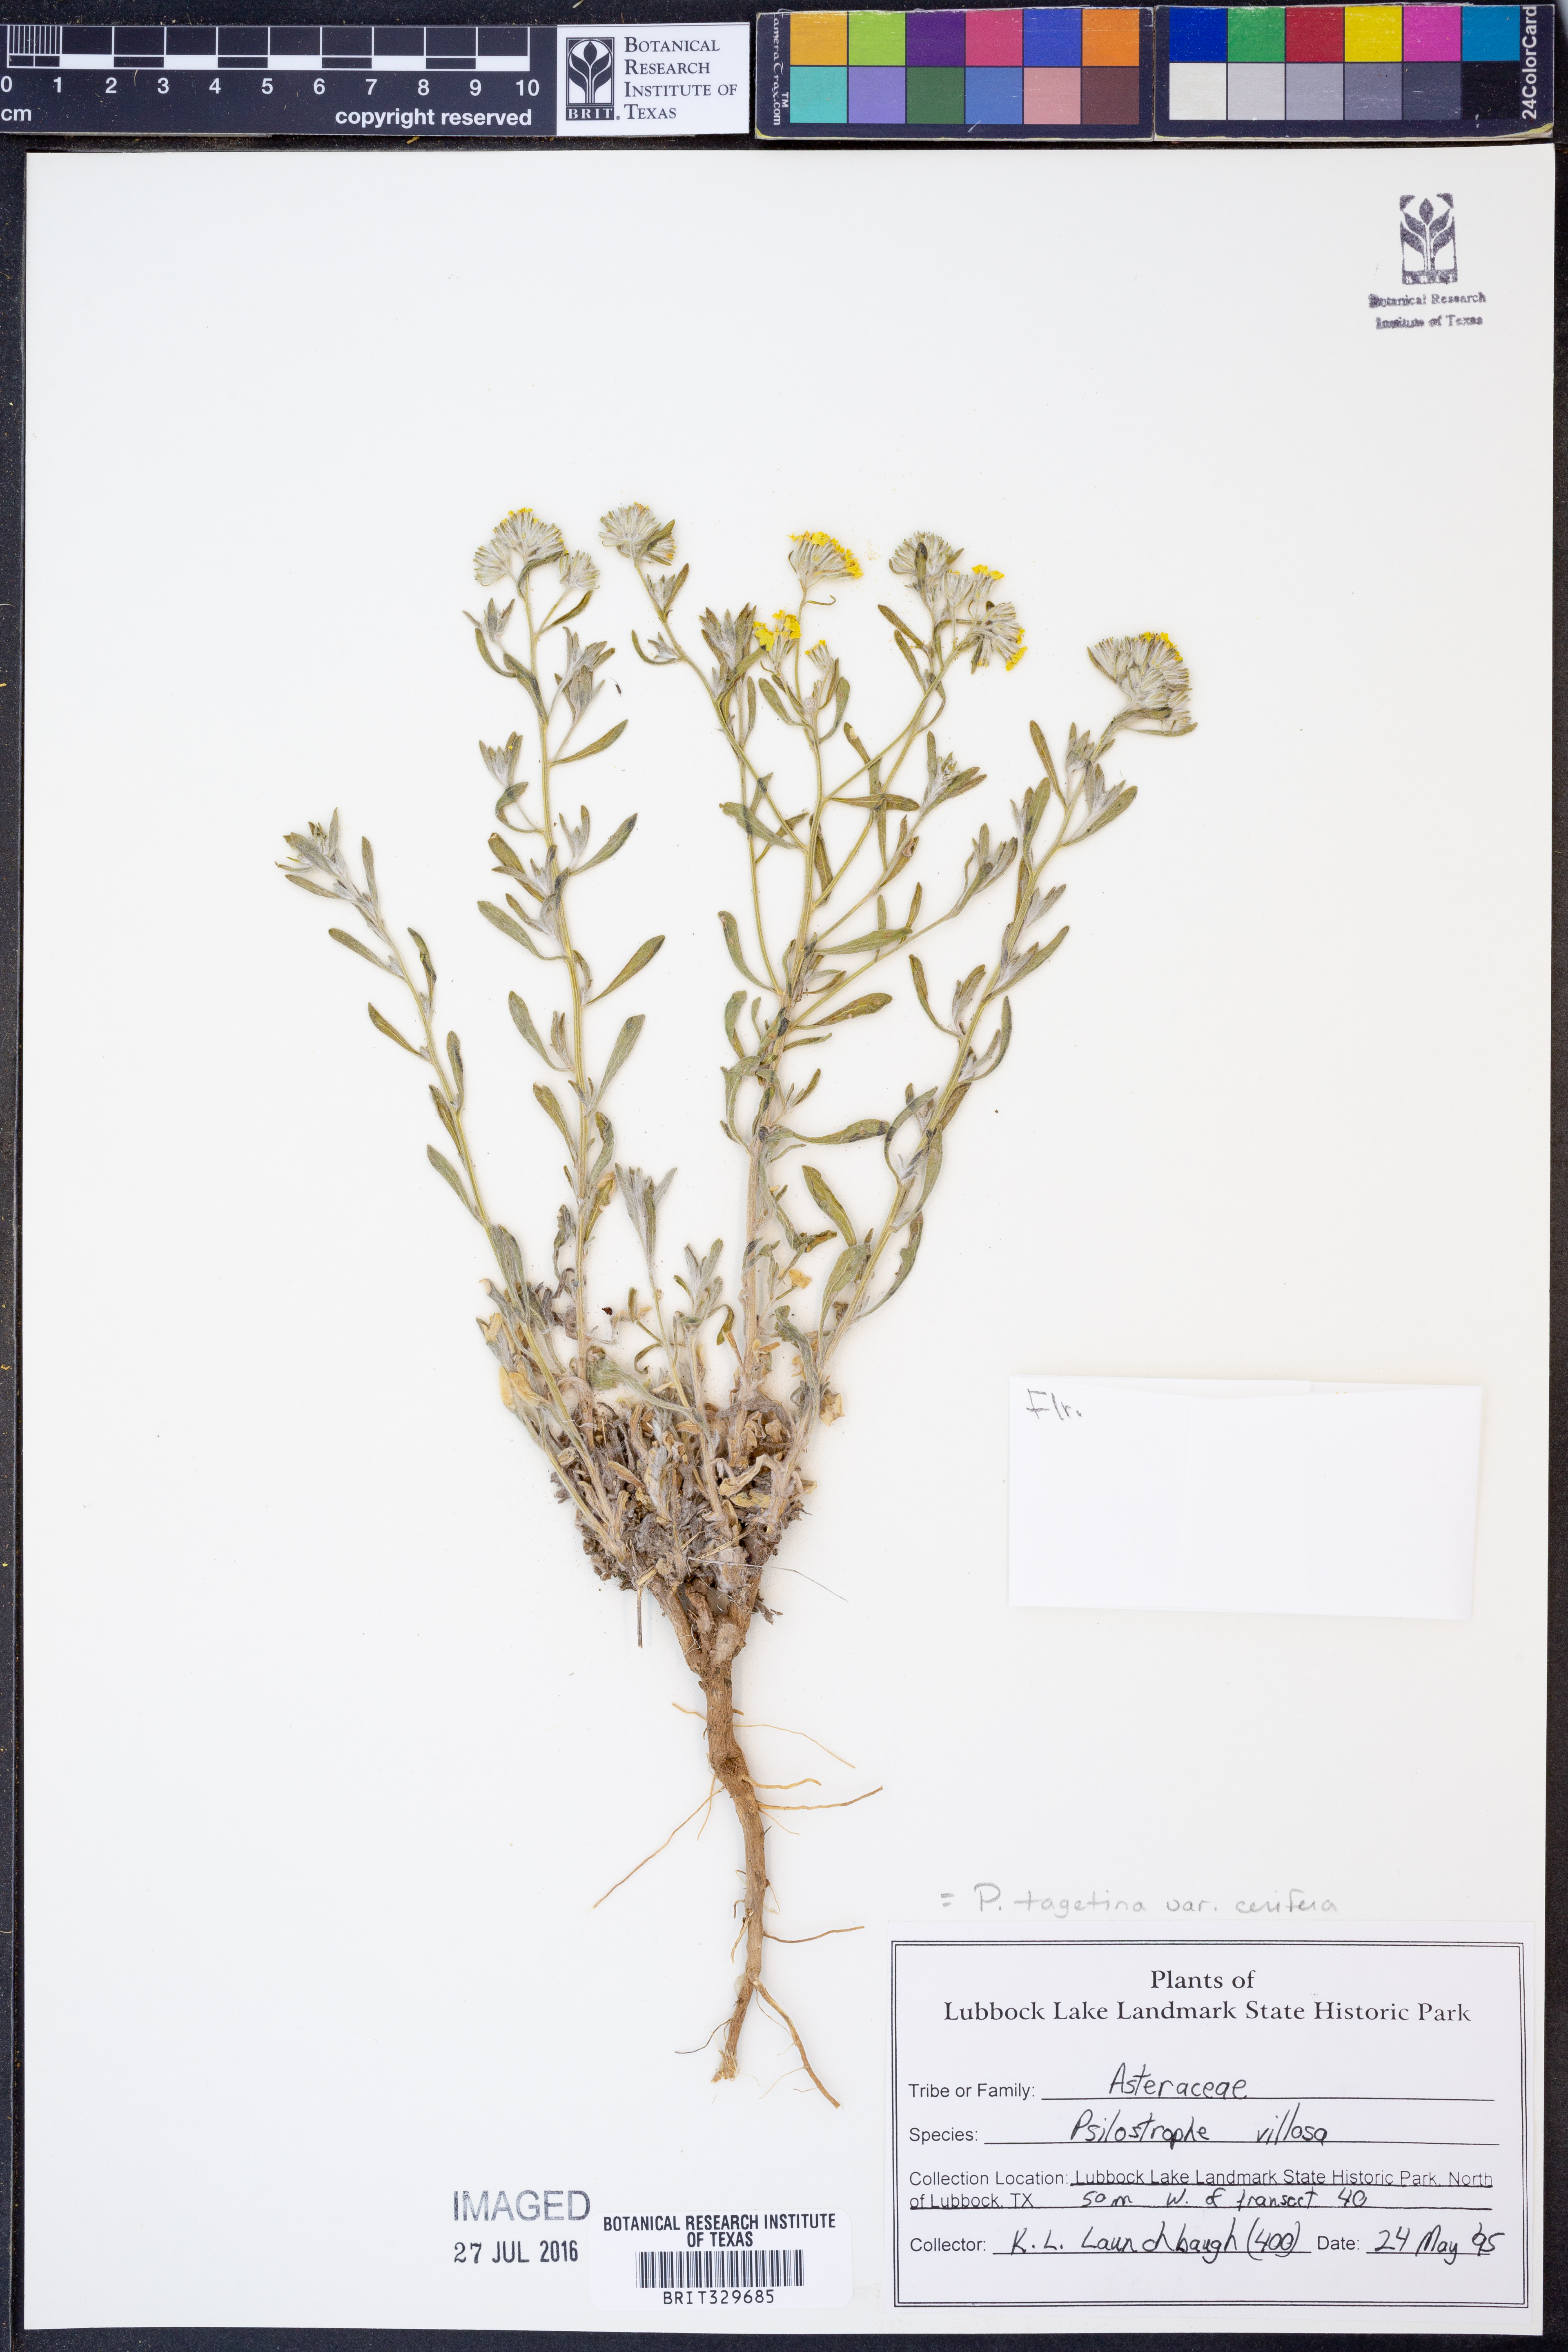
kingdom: Plantae
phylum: Tracheophyta
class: Magnoliopsida
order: Asterales
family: Asteraceae
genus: Psilostrophe
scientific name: Psilostrophe villosa
